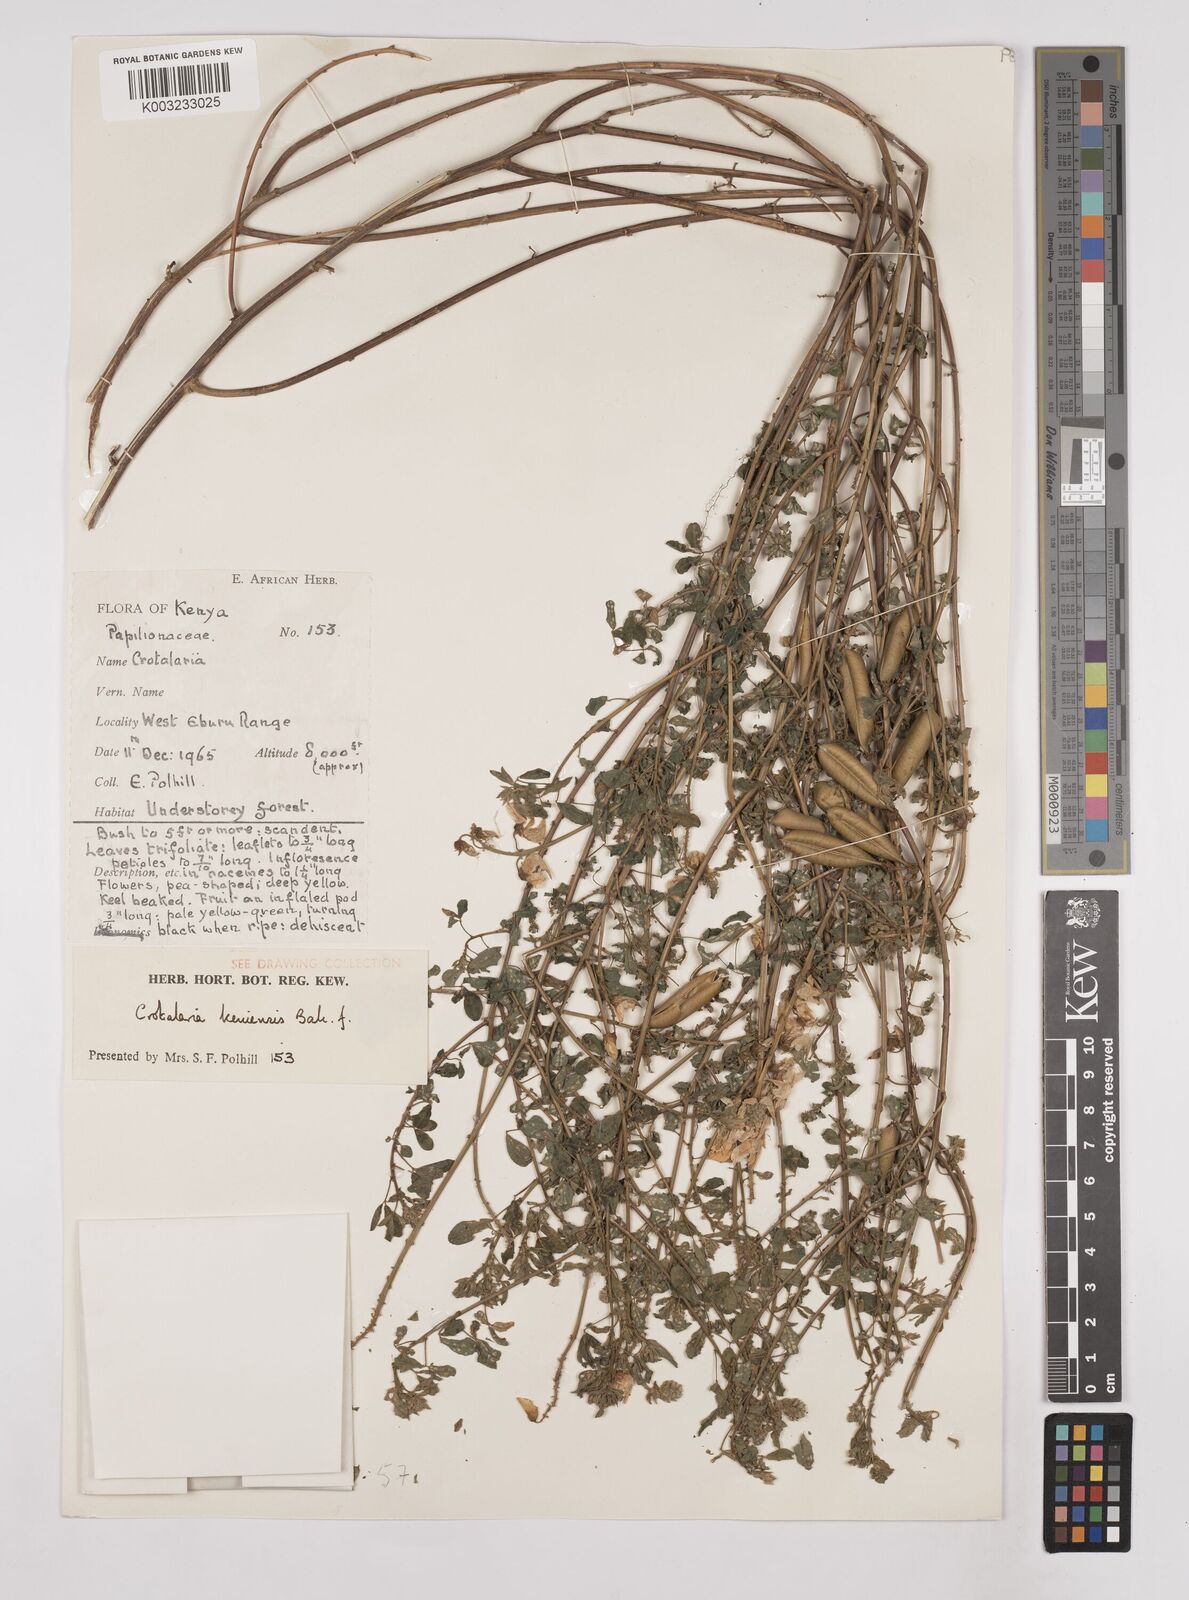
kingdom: Plantae
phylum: Tracheophyta
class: Magnoliopsida
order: Fabales
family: Fabaceae
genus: Crotalaria
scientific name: Crotalaria keniensis
